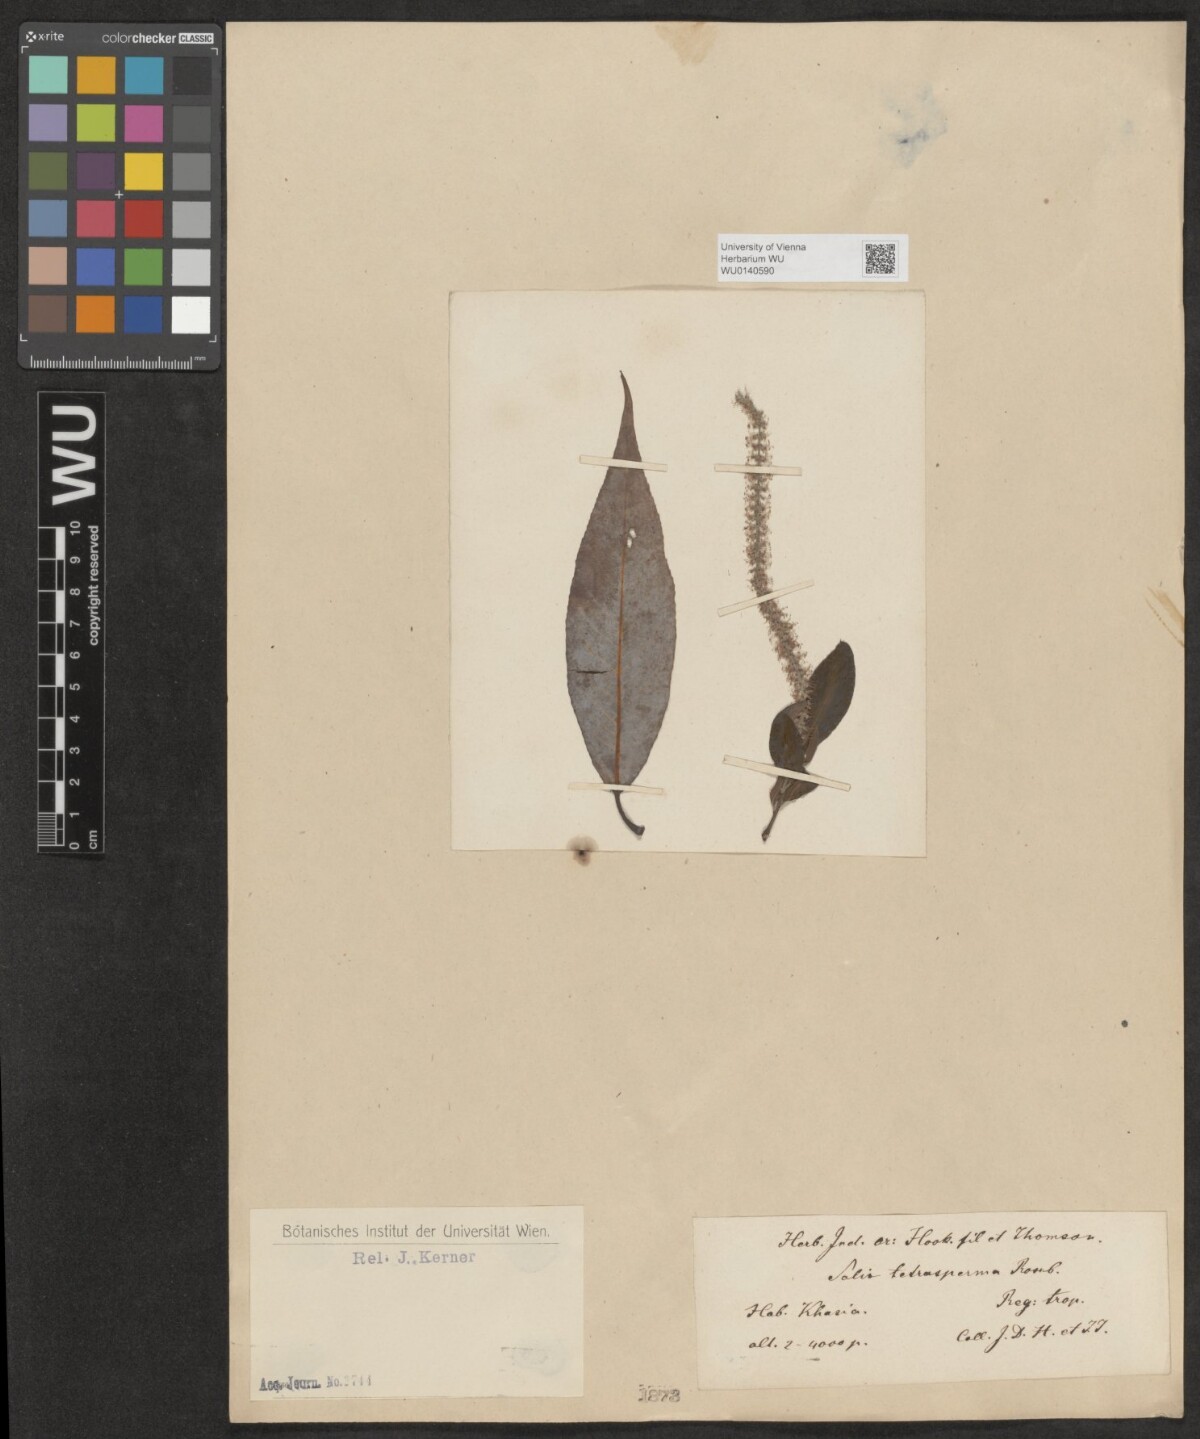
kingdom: Plantae
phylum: Tracheophyta
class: Magnoliopsida
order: Malpighiales
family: Salicaceae
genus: Salix
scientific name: Salix tetrasperma
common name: Indian willow
